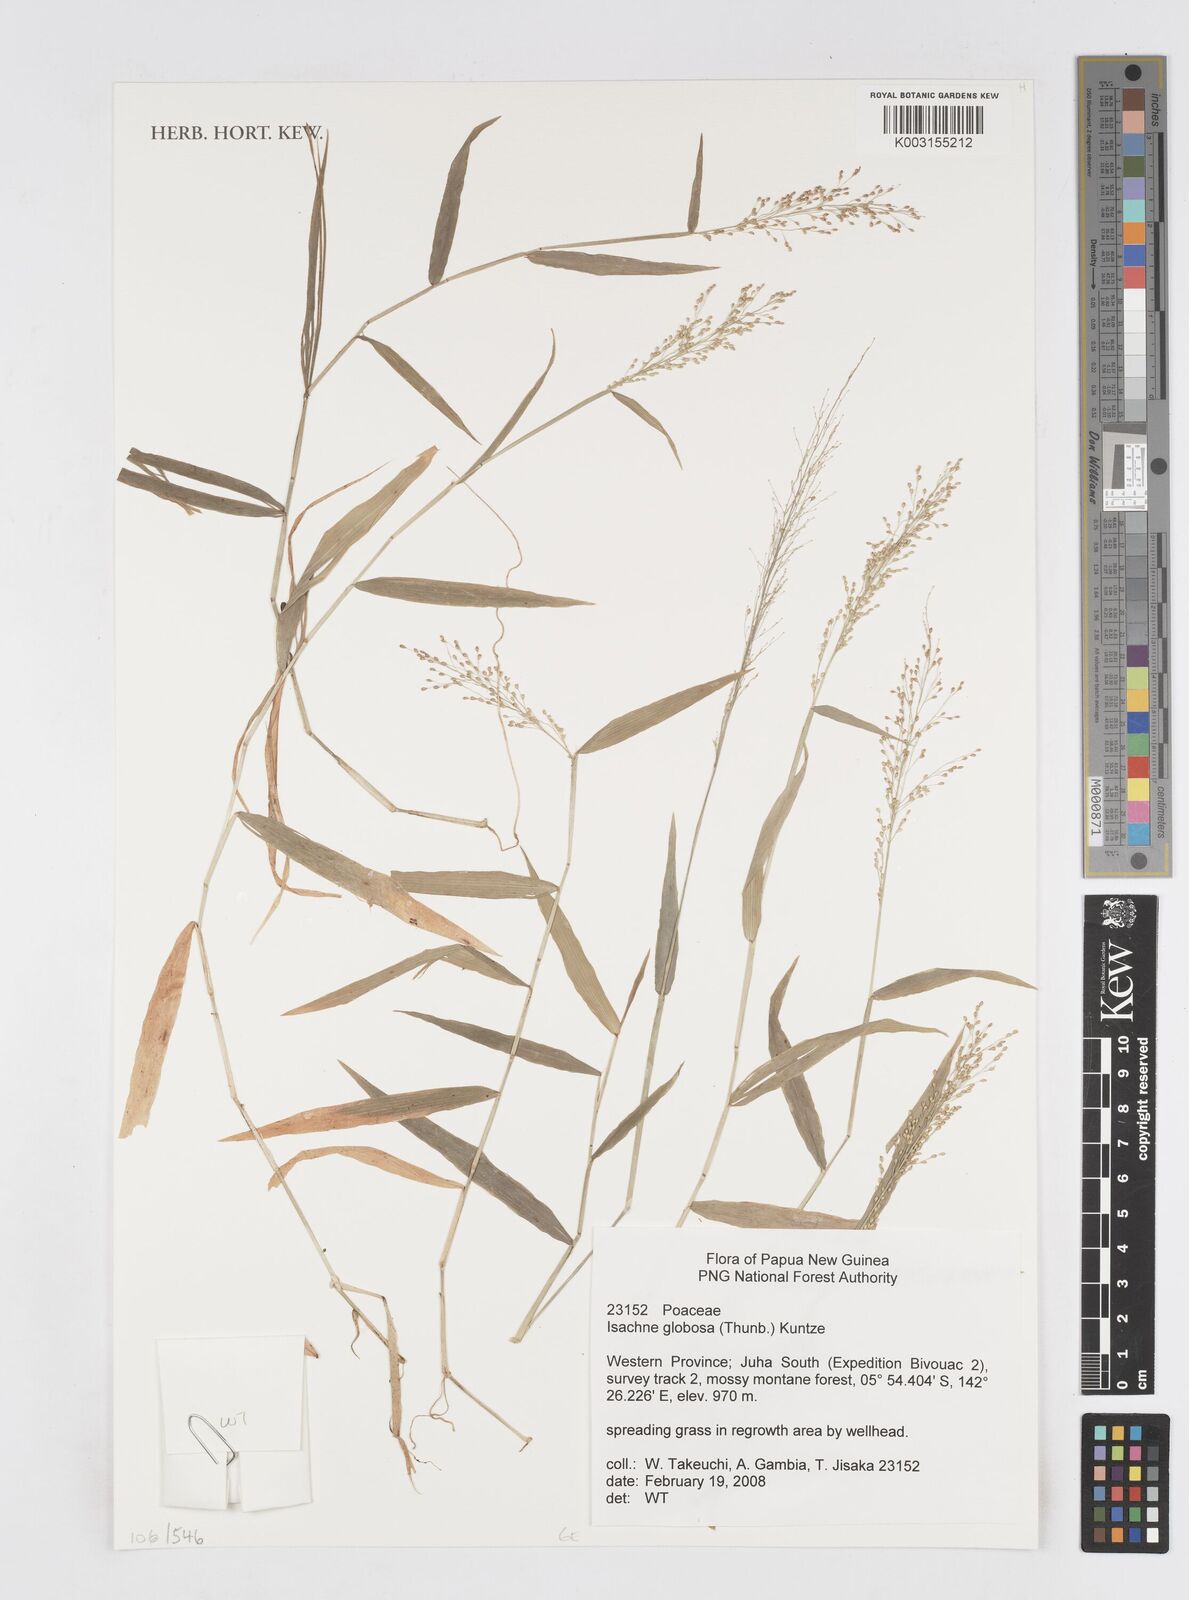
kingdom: Plantae
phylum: Tracheophyta
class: Liliopsida
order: Poales
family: Poaceae
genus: Isachne
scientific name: Isachne globosa
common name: Swamp millet
